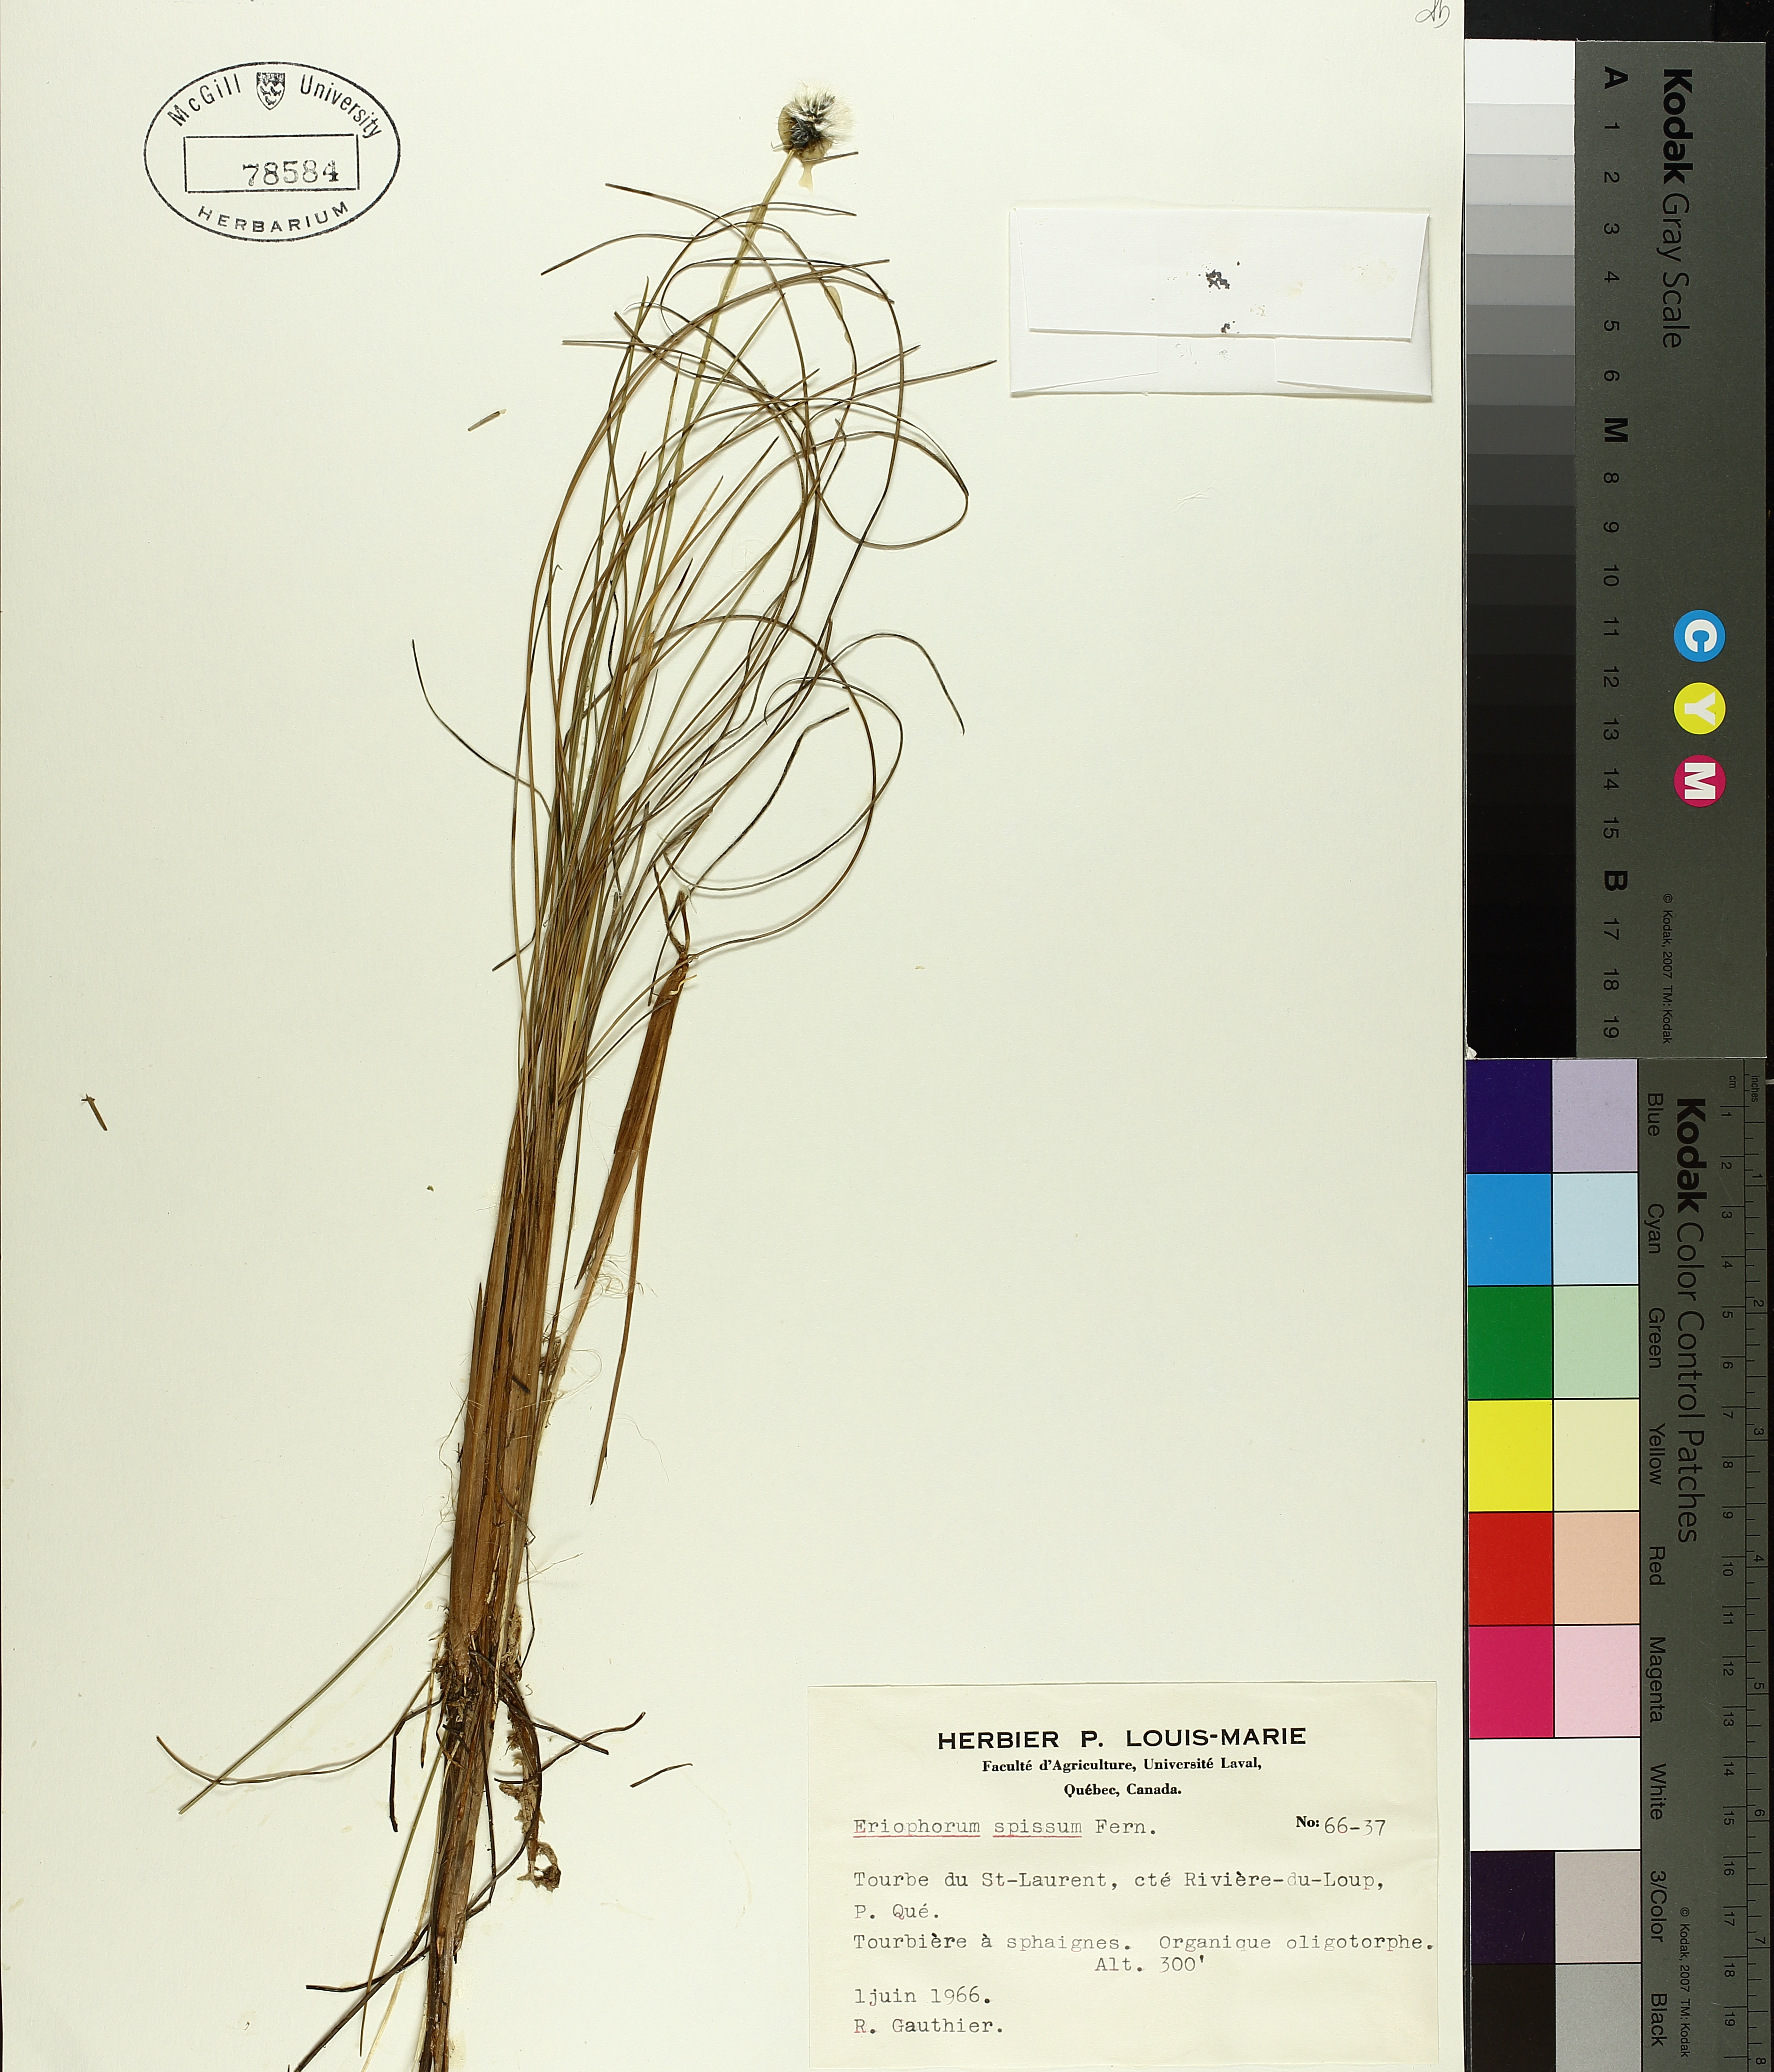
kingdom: Plantae
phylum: Tracheophyta
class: Liliopsida
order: Poales
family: Cyperaceae
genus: Eriophorum
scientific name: Eriophorum vaginatum
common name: Hare's-tail cottongrass
